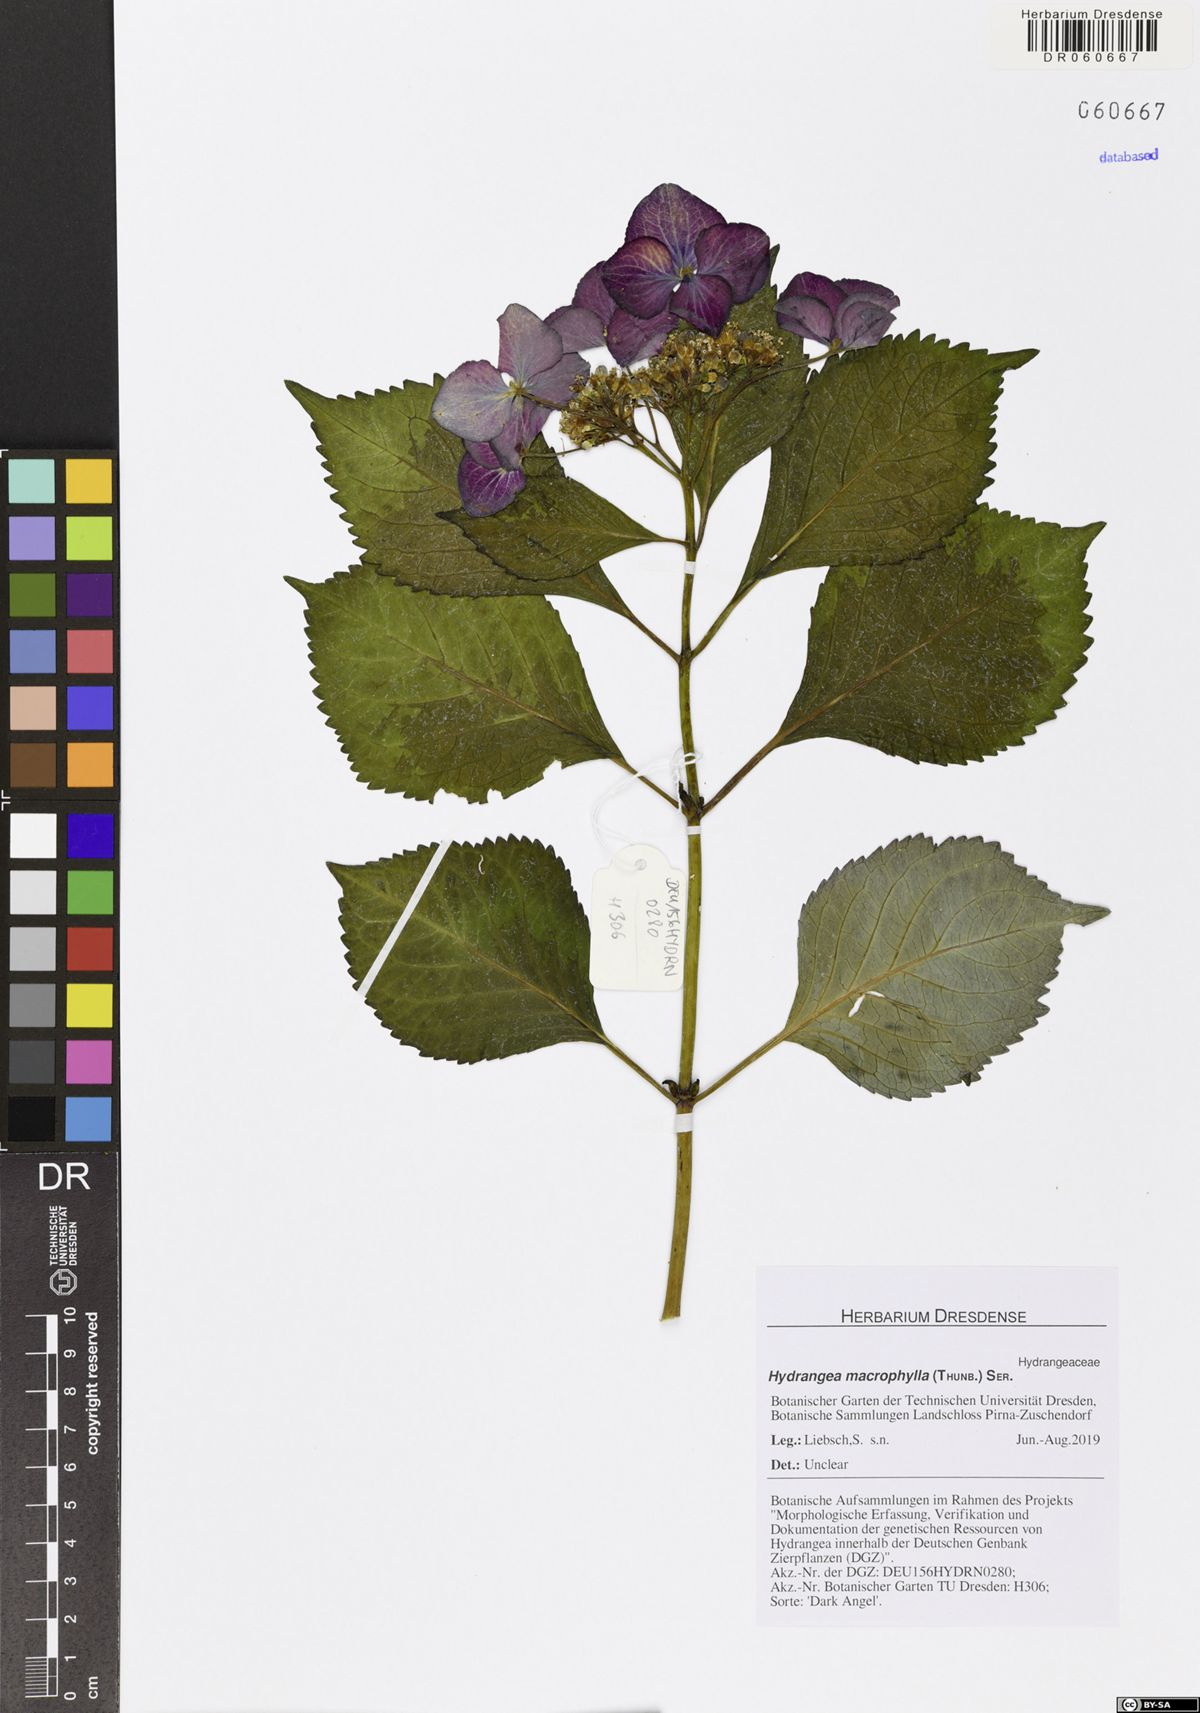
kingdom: Plantae
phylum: Tracheophyta
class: Magnoliopsida
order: Cornales
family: Hydrangeaceae
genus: Hydrangea
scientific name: Hydrangea macrophylla
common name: Hydrangea
